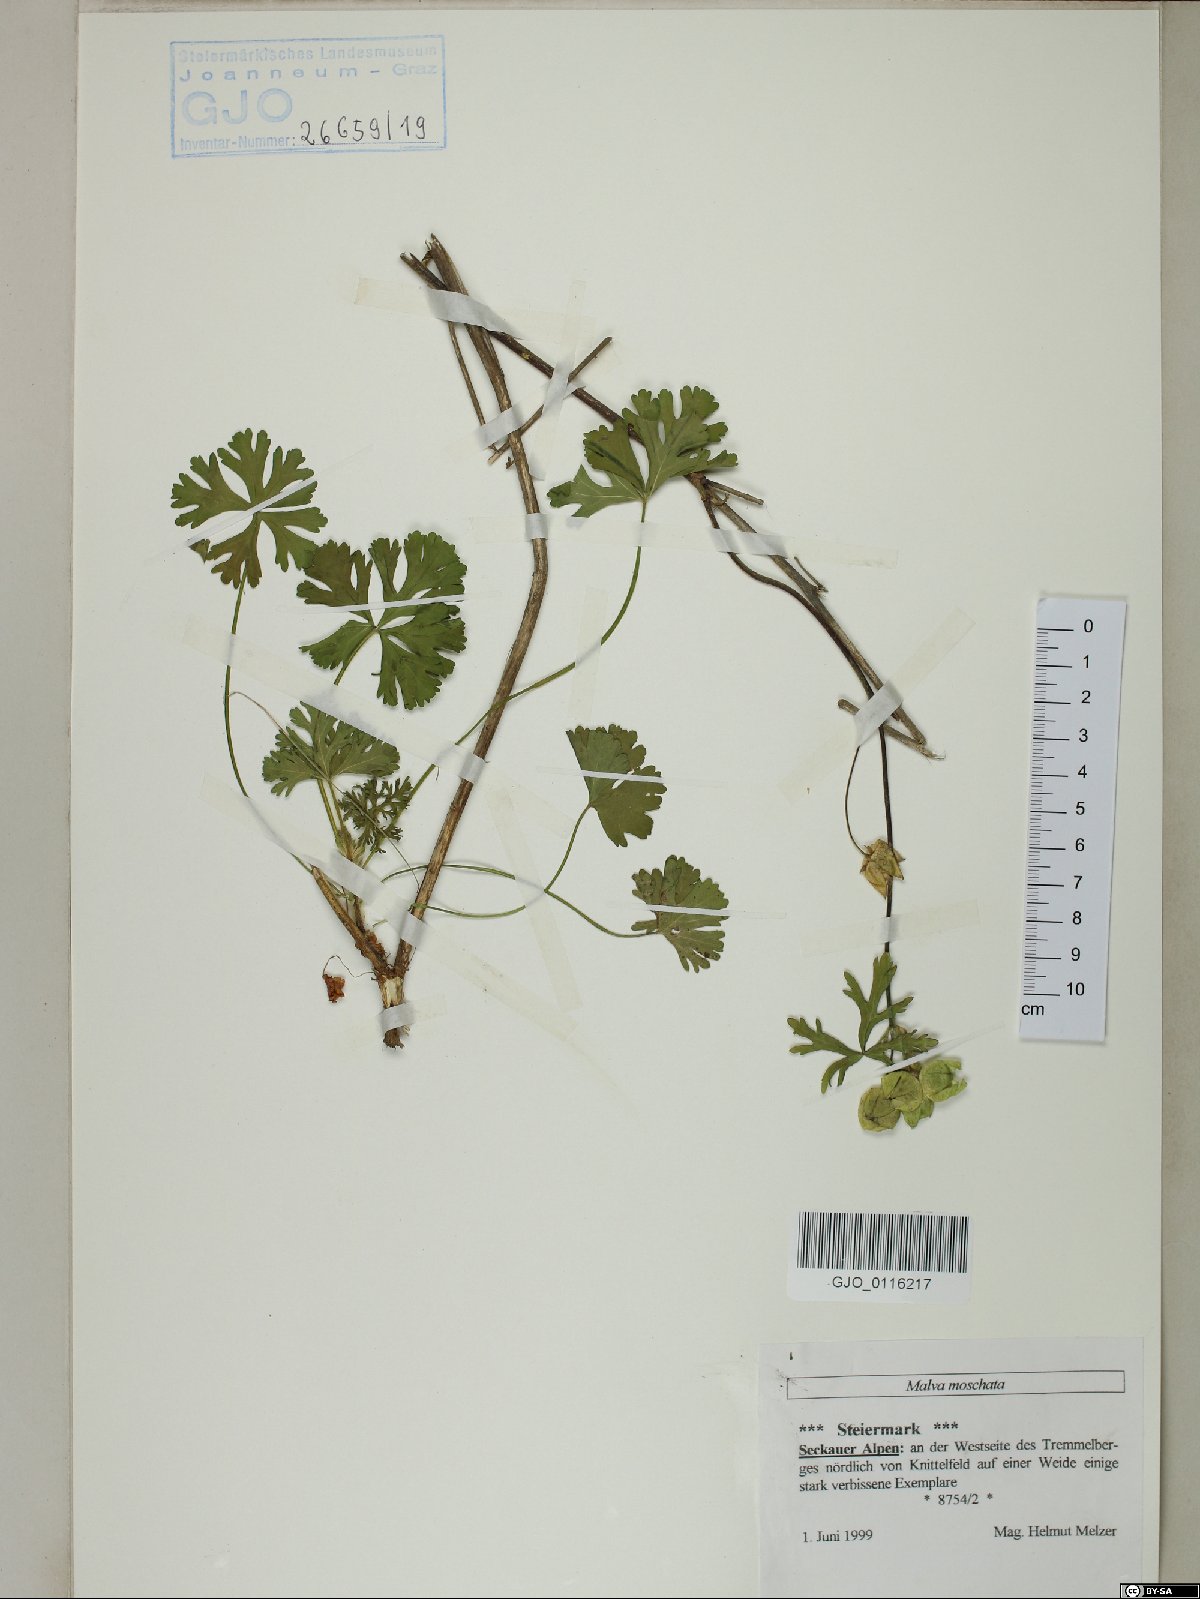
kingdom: Plantae
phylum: Tracheophyta
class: Magnoliopsida
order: Malvales
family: Malvaceae
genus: Malva
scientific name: Malva moschata
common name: Musk mallow
